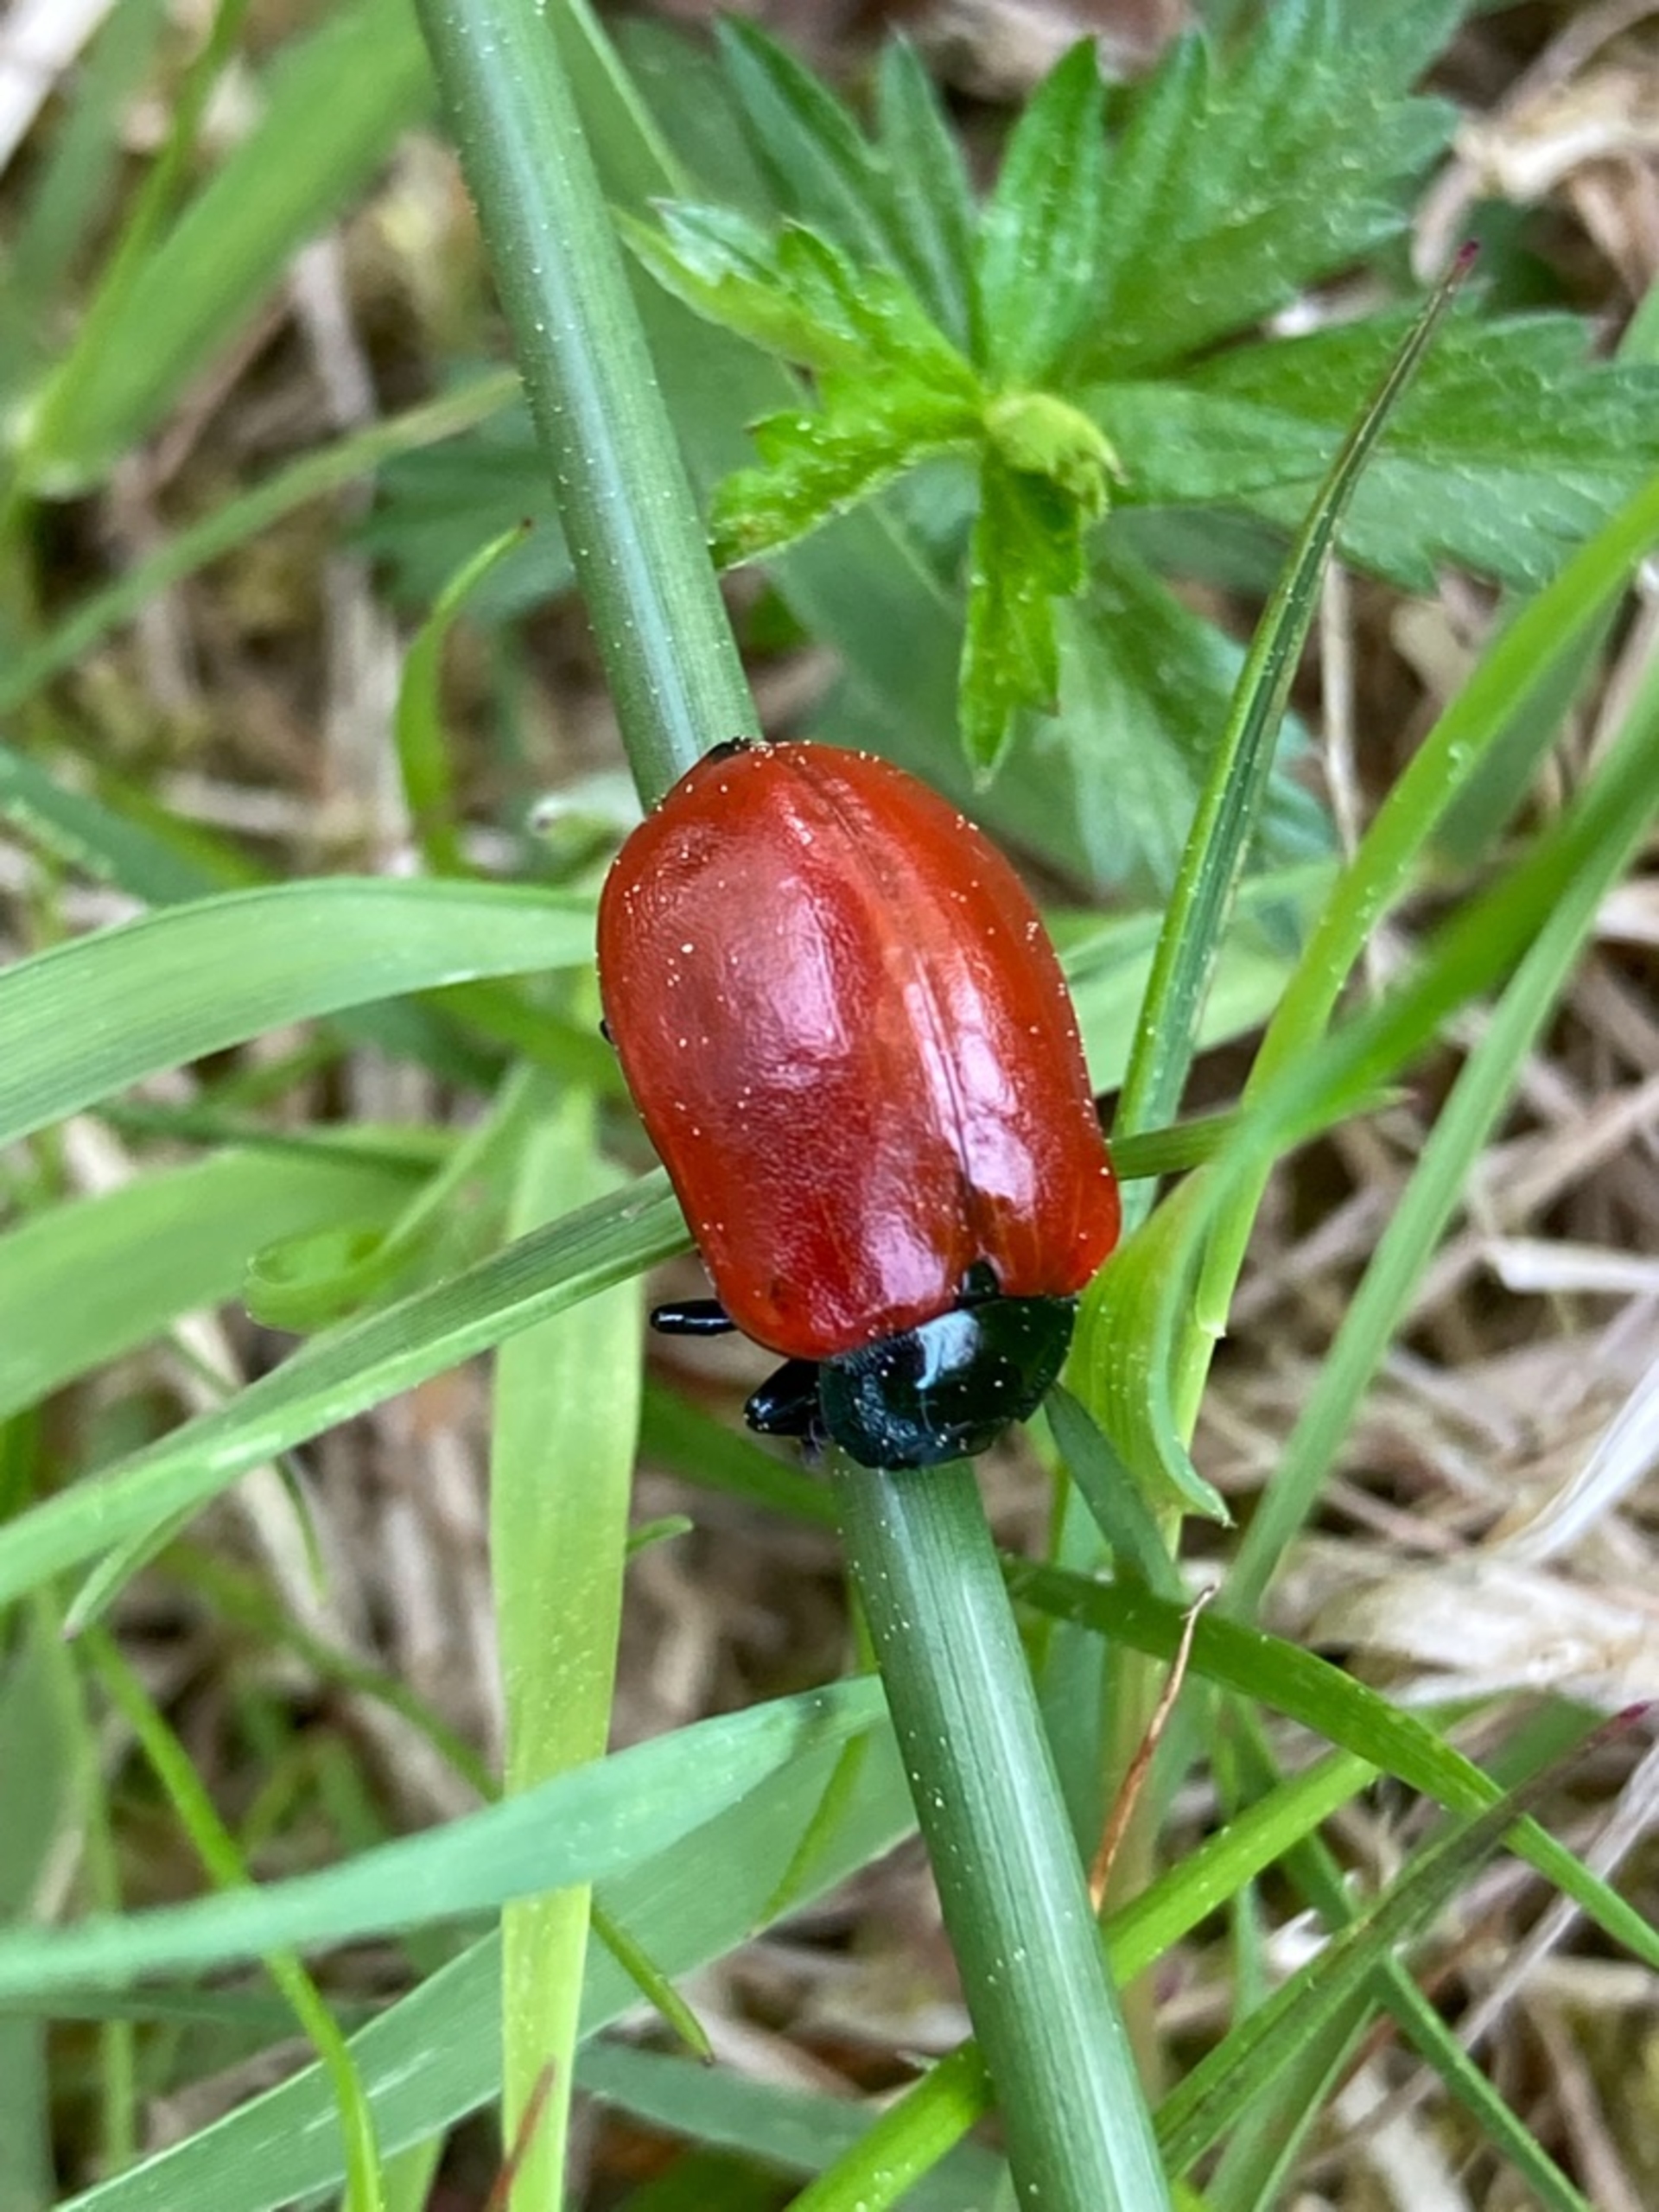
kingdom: Animalia
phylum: Arthropoda
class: Insecta
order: Coleoptera
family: Chrysomelidae
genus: Chrysomela
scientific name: Chrysomela populi
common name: Poppelbladbille
